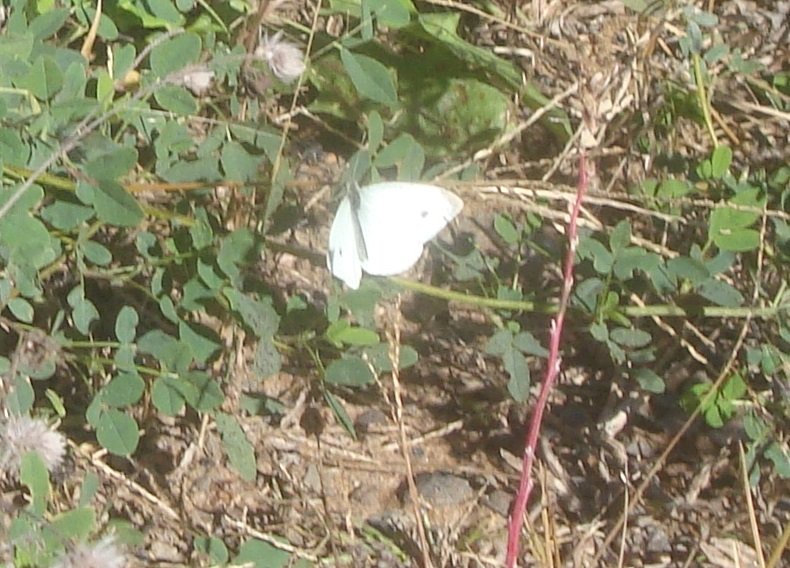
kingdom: Animalia
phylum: Arthropoda
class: Insecta
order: Lepidoptera
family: Pieridae
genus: Pieris
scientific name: Pieris rapae
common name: Cabbage White
